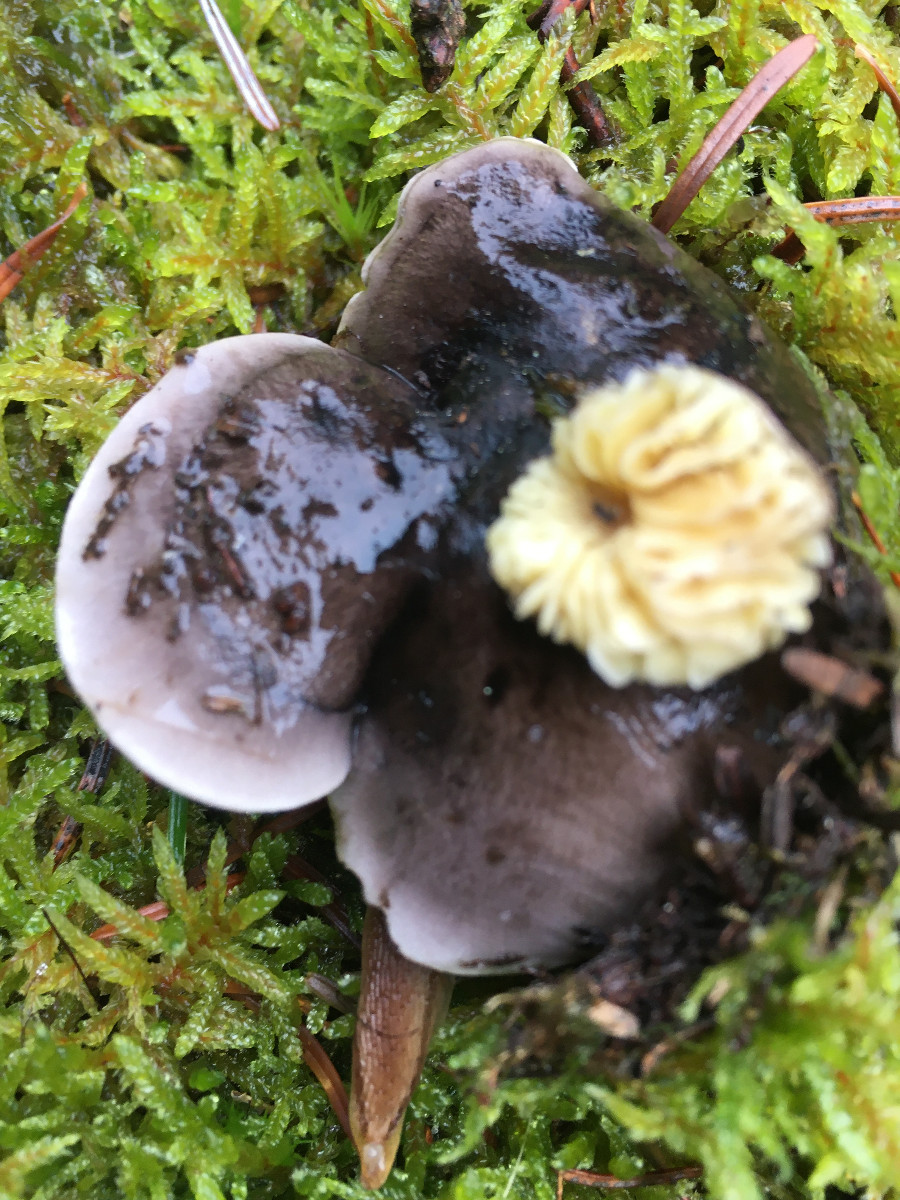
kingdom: Fungi
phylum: Basidiomycota
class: Agaricomycetes
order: Agaricales
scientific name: Agaricales
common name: champignonordenen
